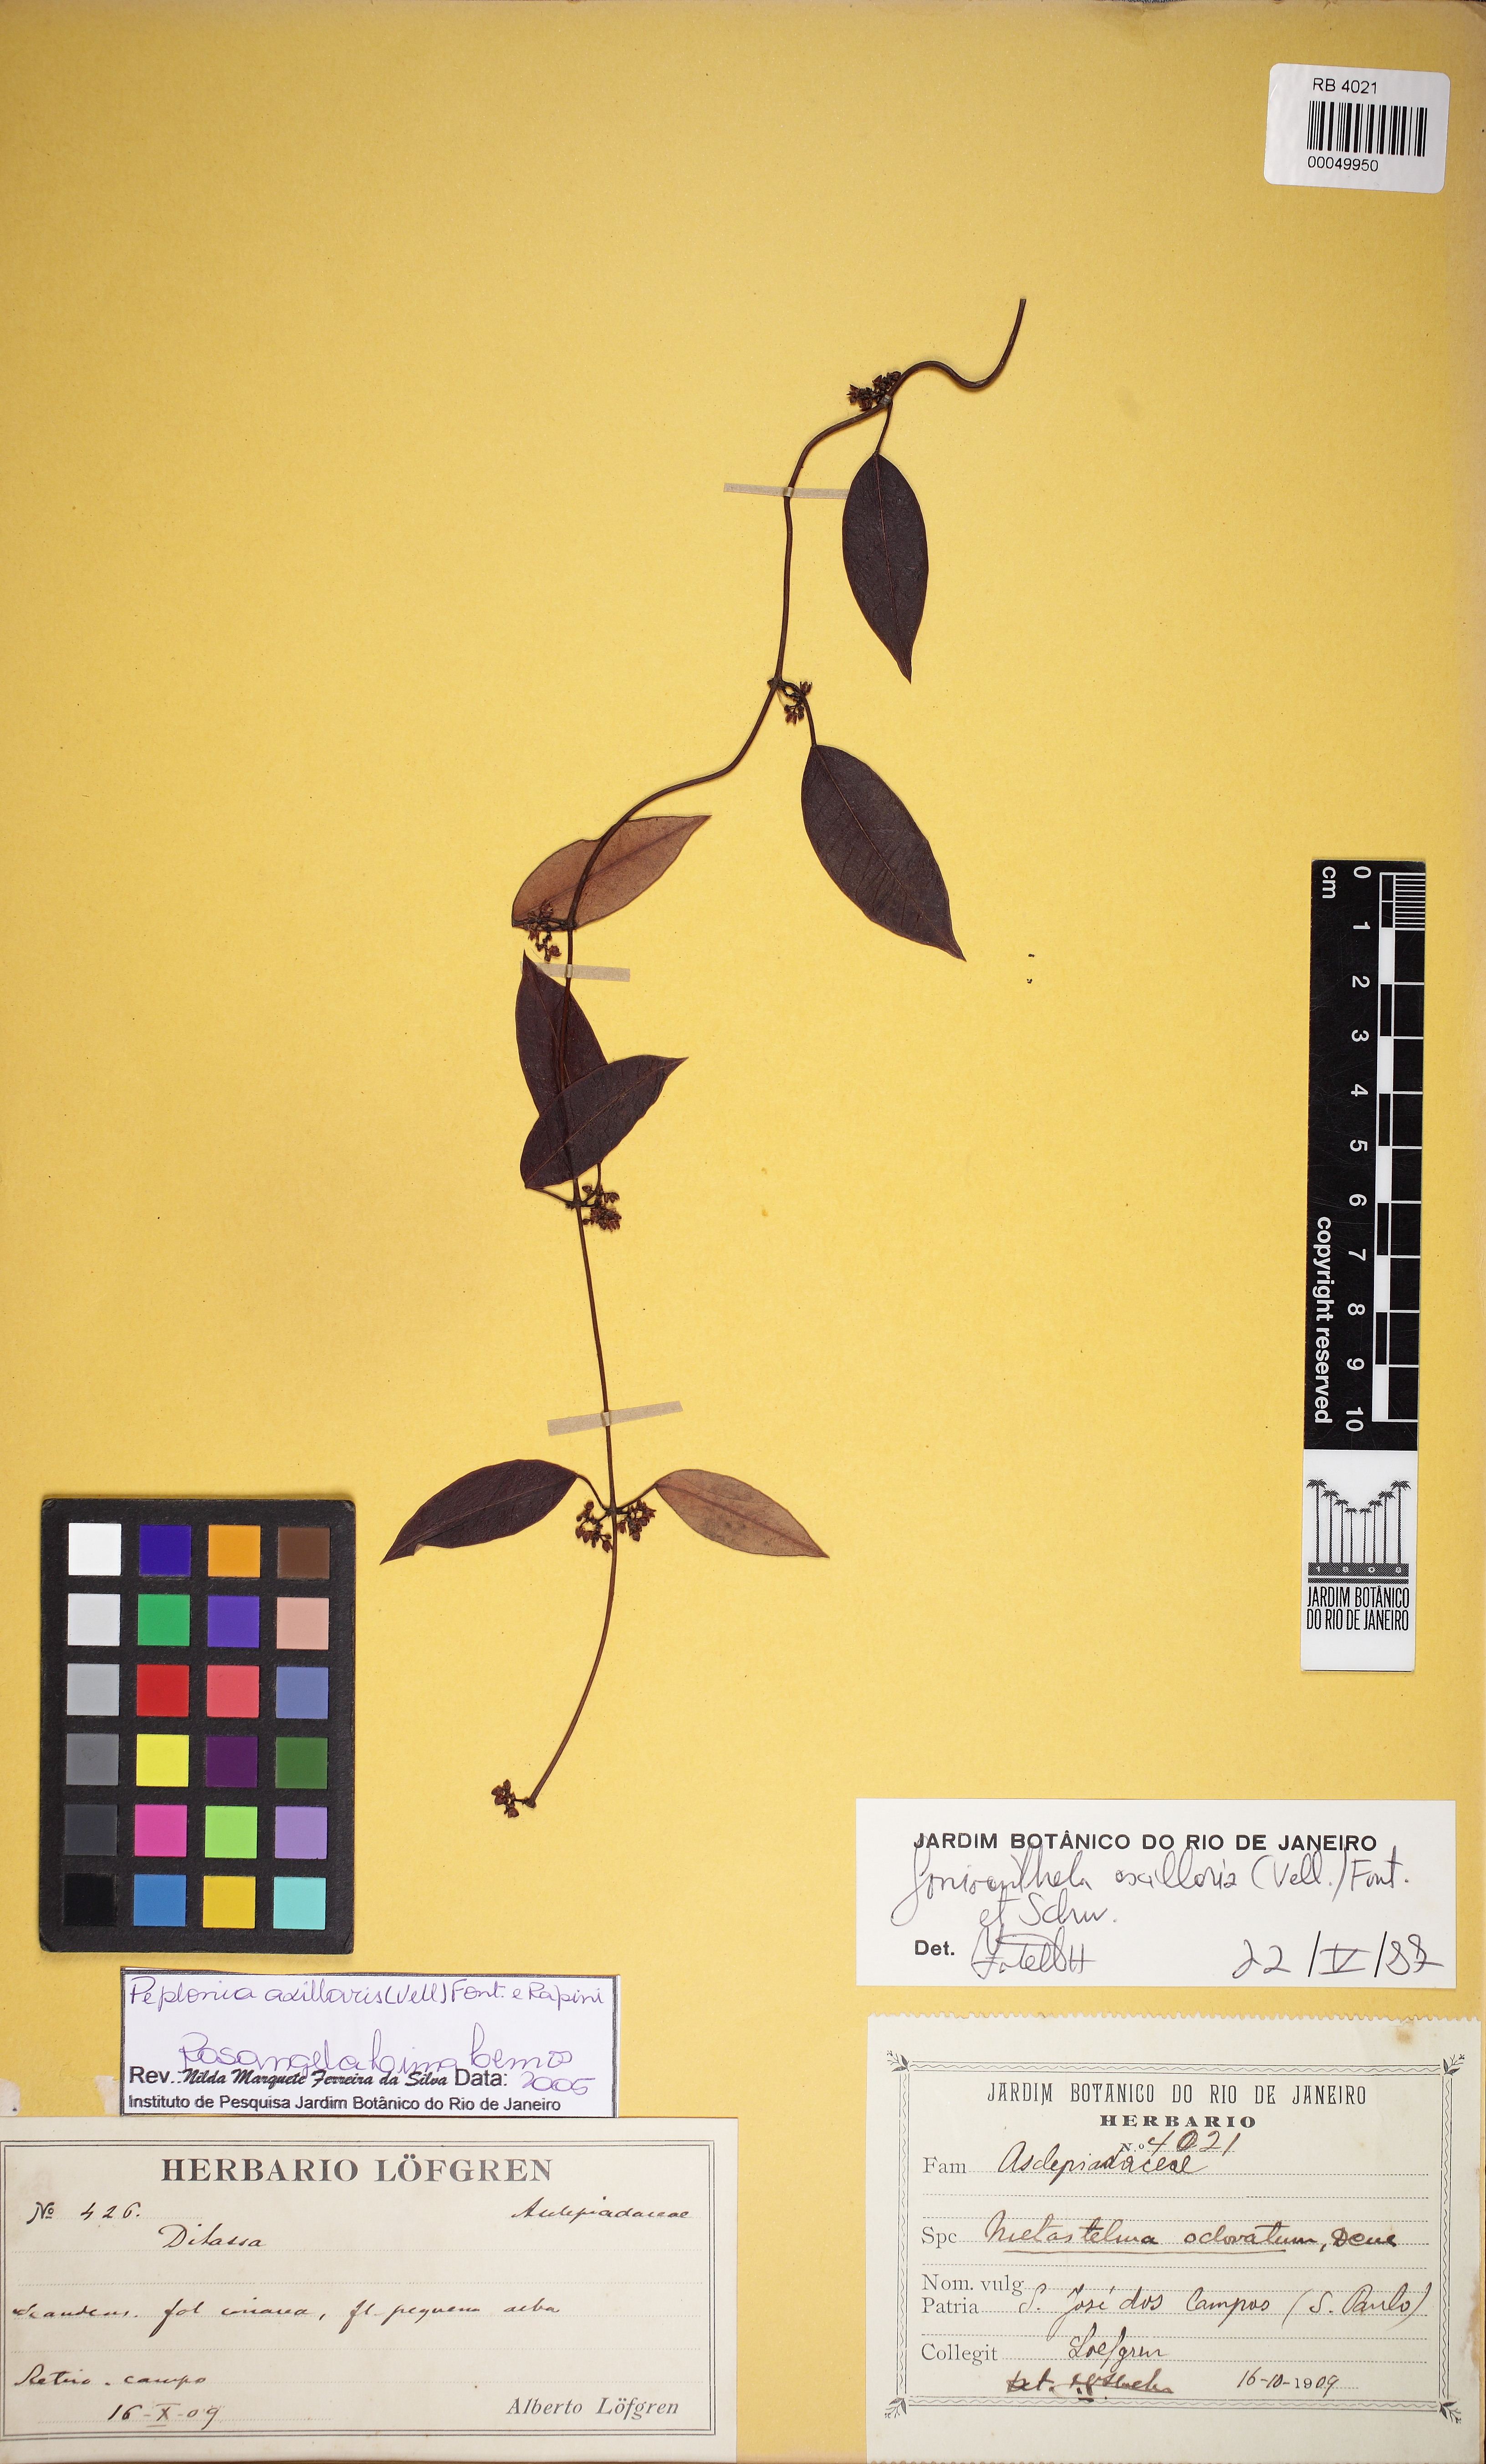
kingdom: Plantae
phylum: Tracheophyta
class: Magnoliopsida
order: Gentianales
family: Apocynaceae
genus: Peplonia
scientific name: Peplonia axillaris
